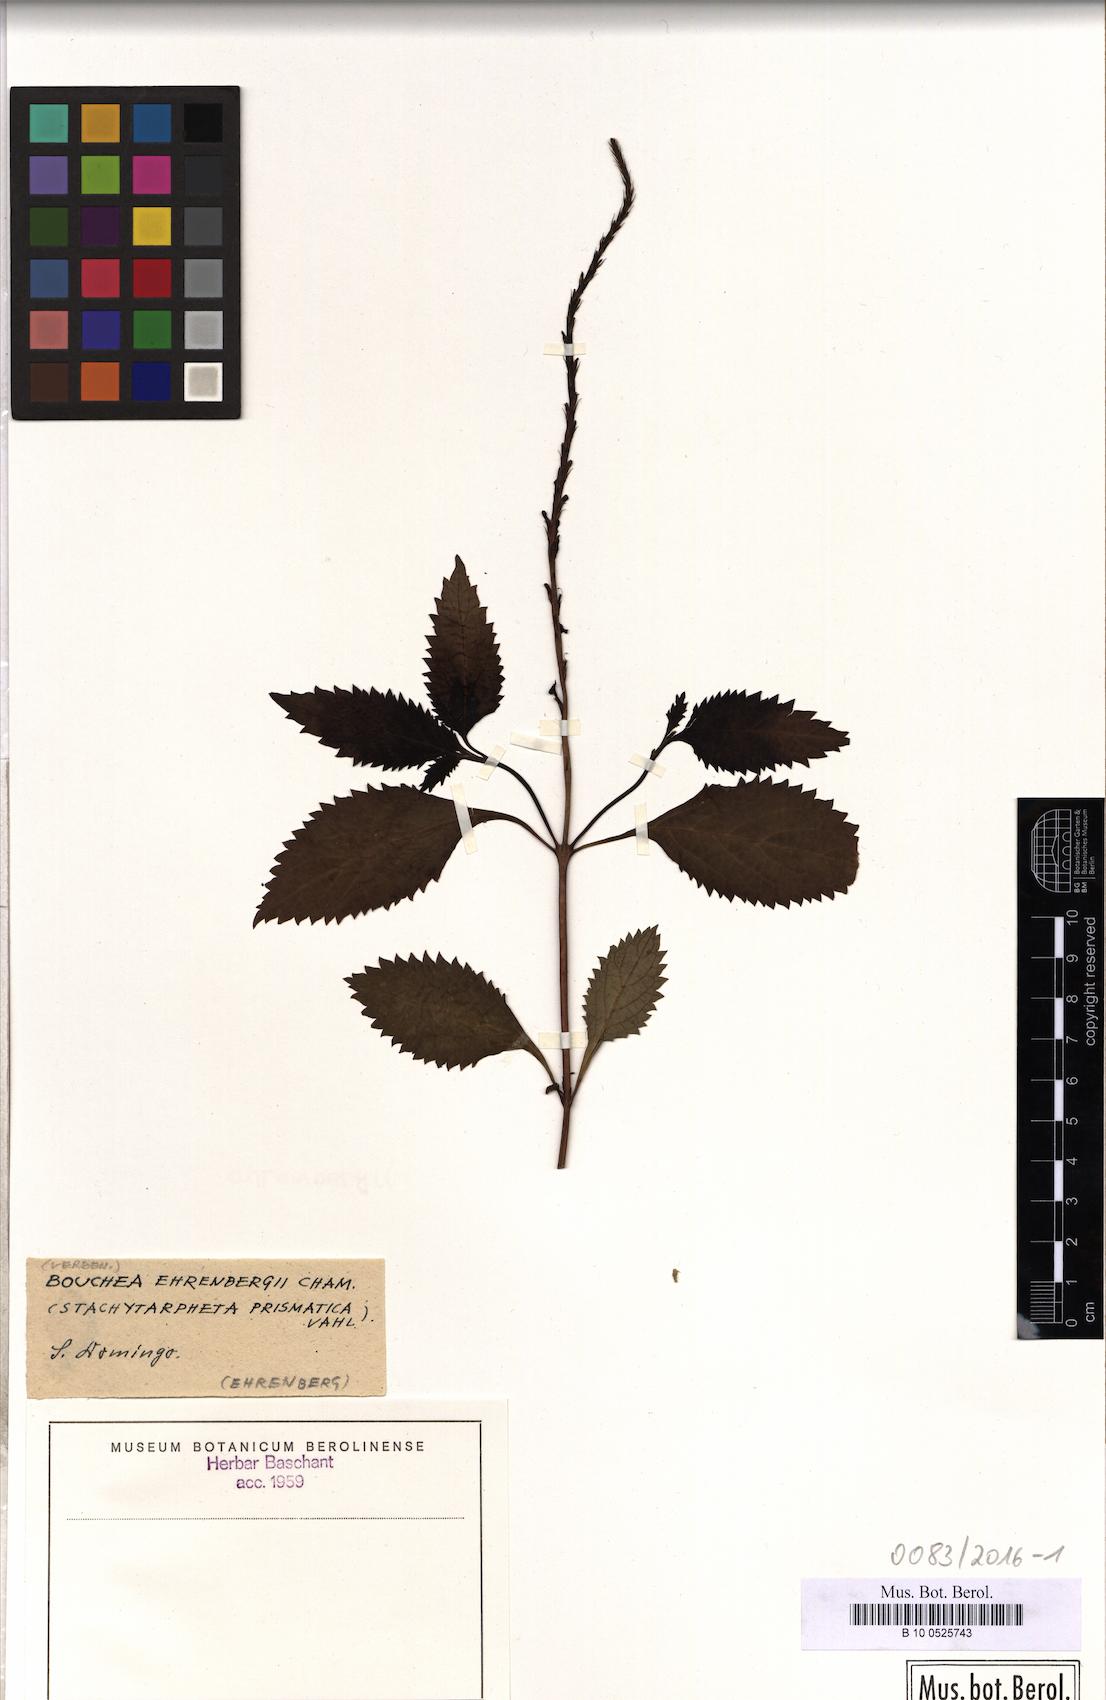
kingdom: Plantae
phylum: Tracheophyta
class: Magnoliopsida
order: Lamiales
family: Verbenaceae
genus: Stachytarpheta
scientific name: Stachytarpheta
